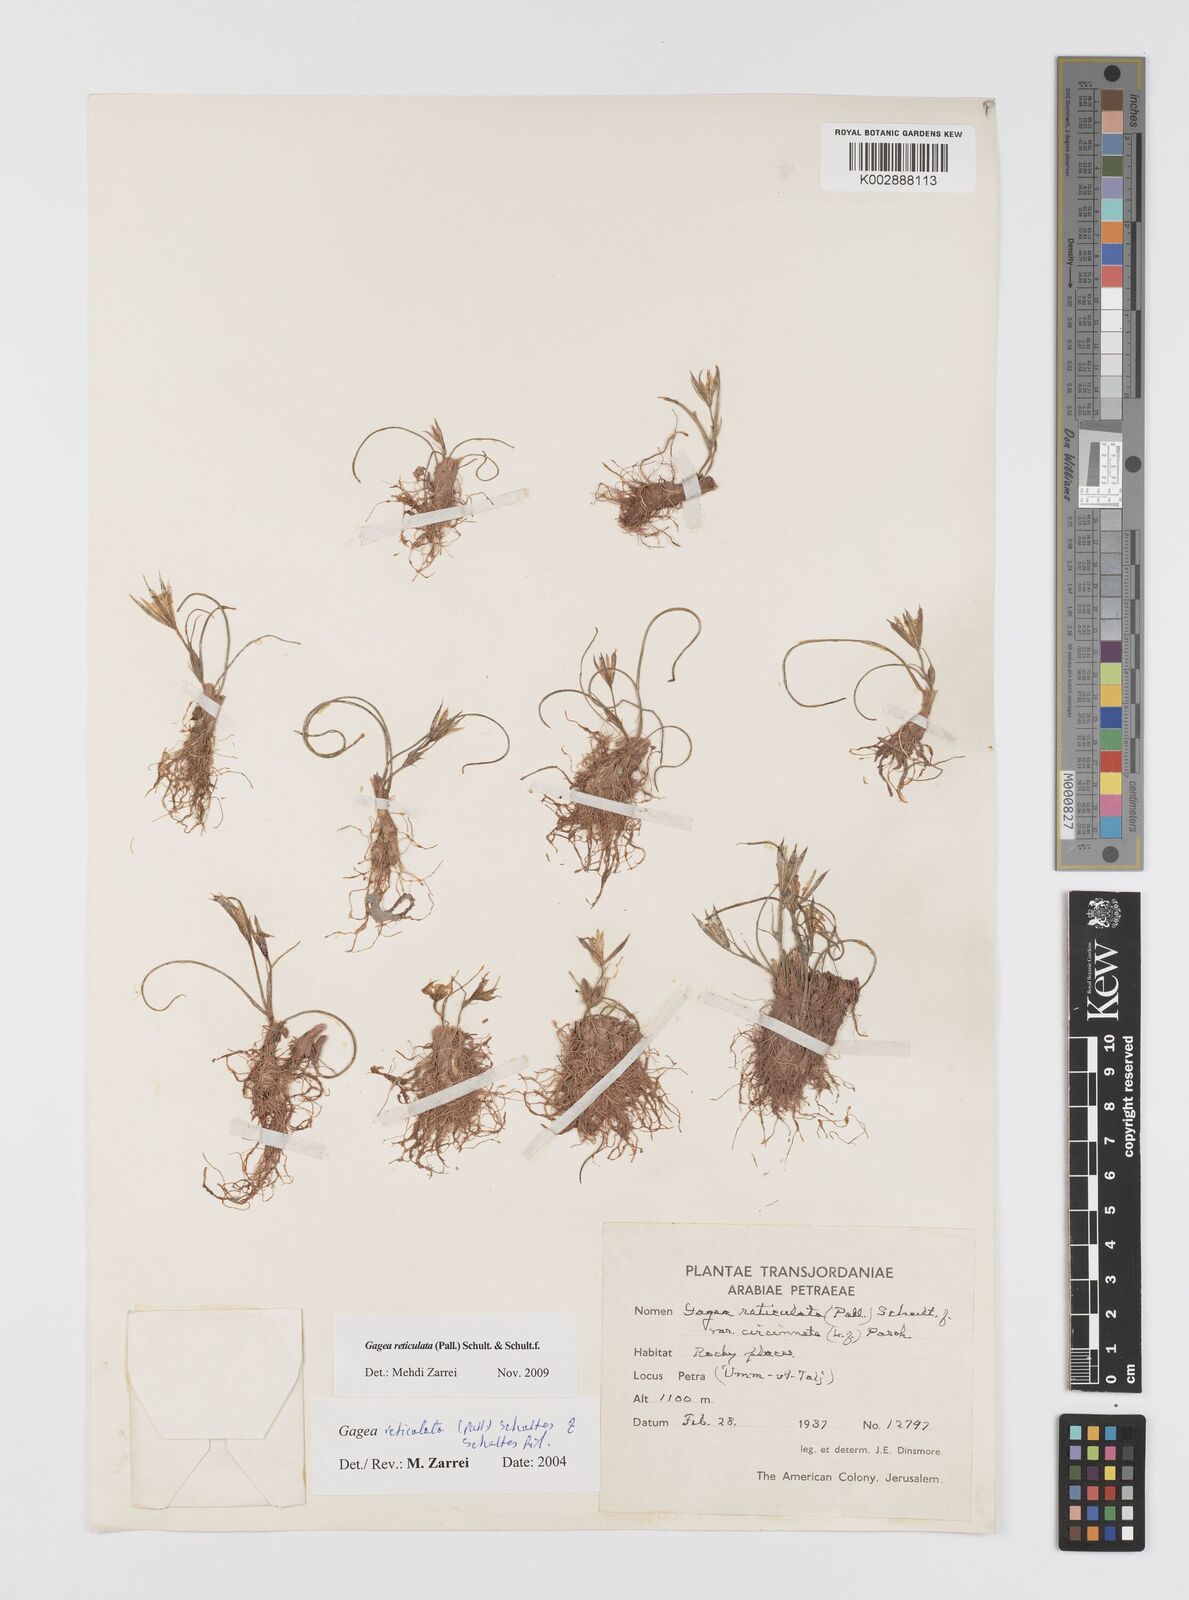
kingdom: Plantae
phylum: Tracheophyta
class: Liliopsida
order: Liliales
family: Liliaceae
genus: Gagea
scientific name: Gagea reticulata
